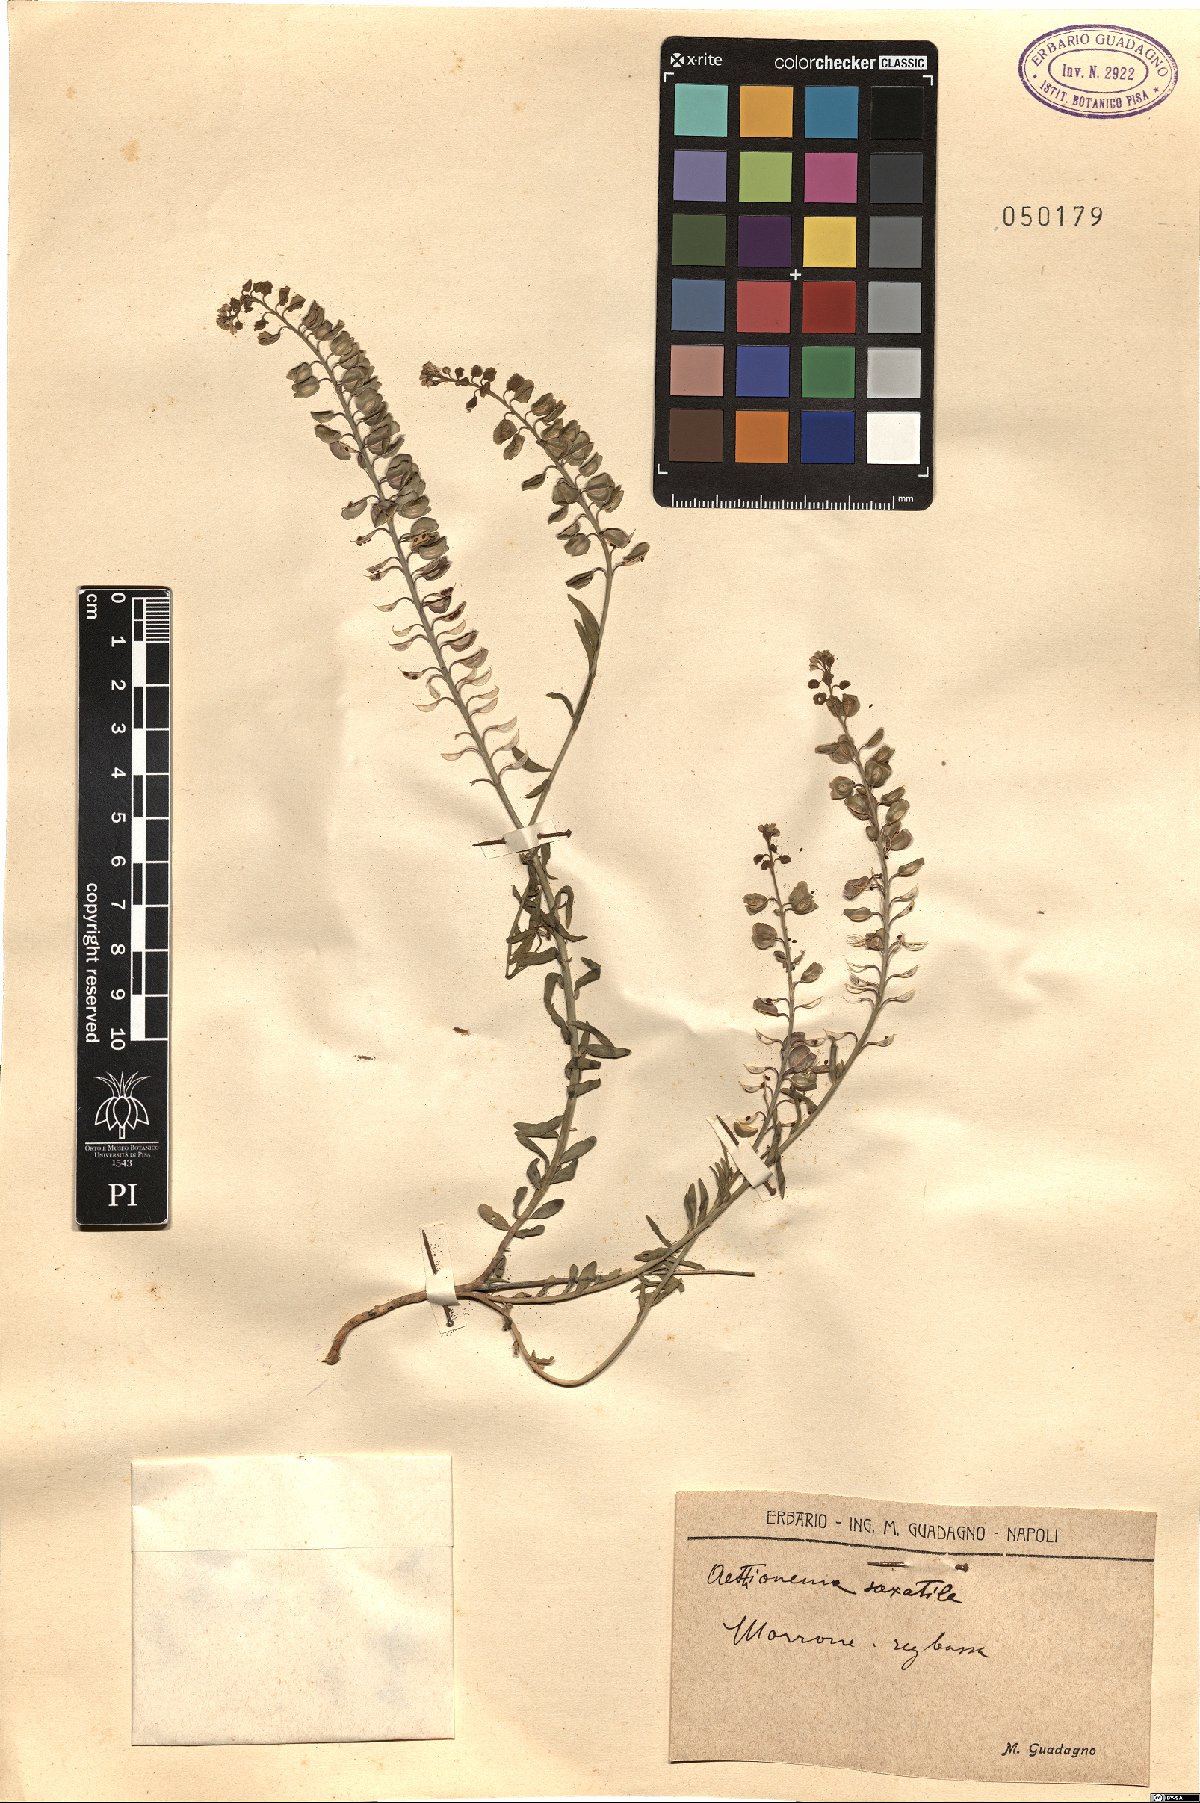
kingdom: Plantae
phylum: Tracheophyta
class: Magnoliopsida
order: Brassicales
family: Brassicaceae
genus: Aethionema
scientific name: Aethionema saxatile
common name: Burnt candytuft
